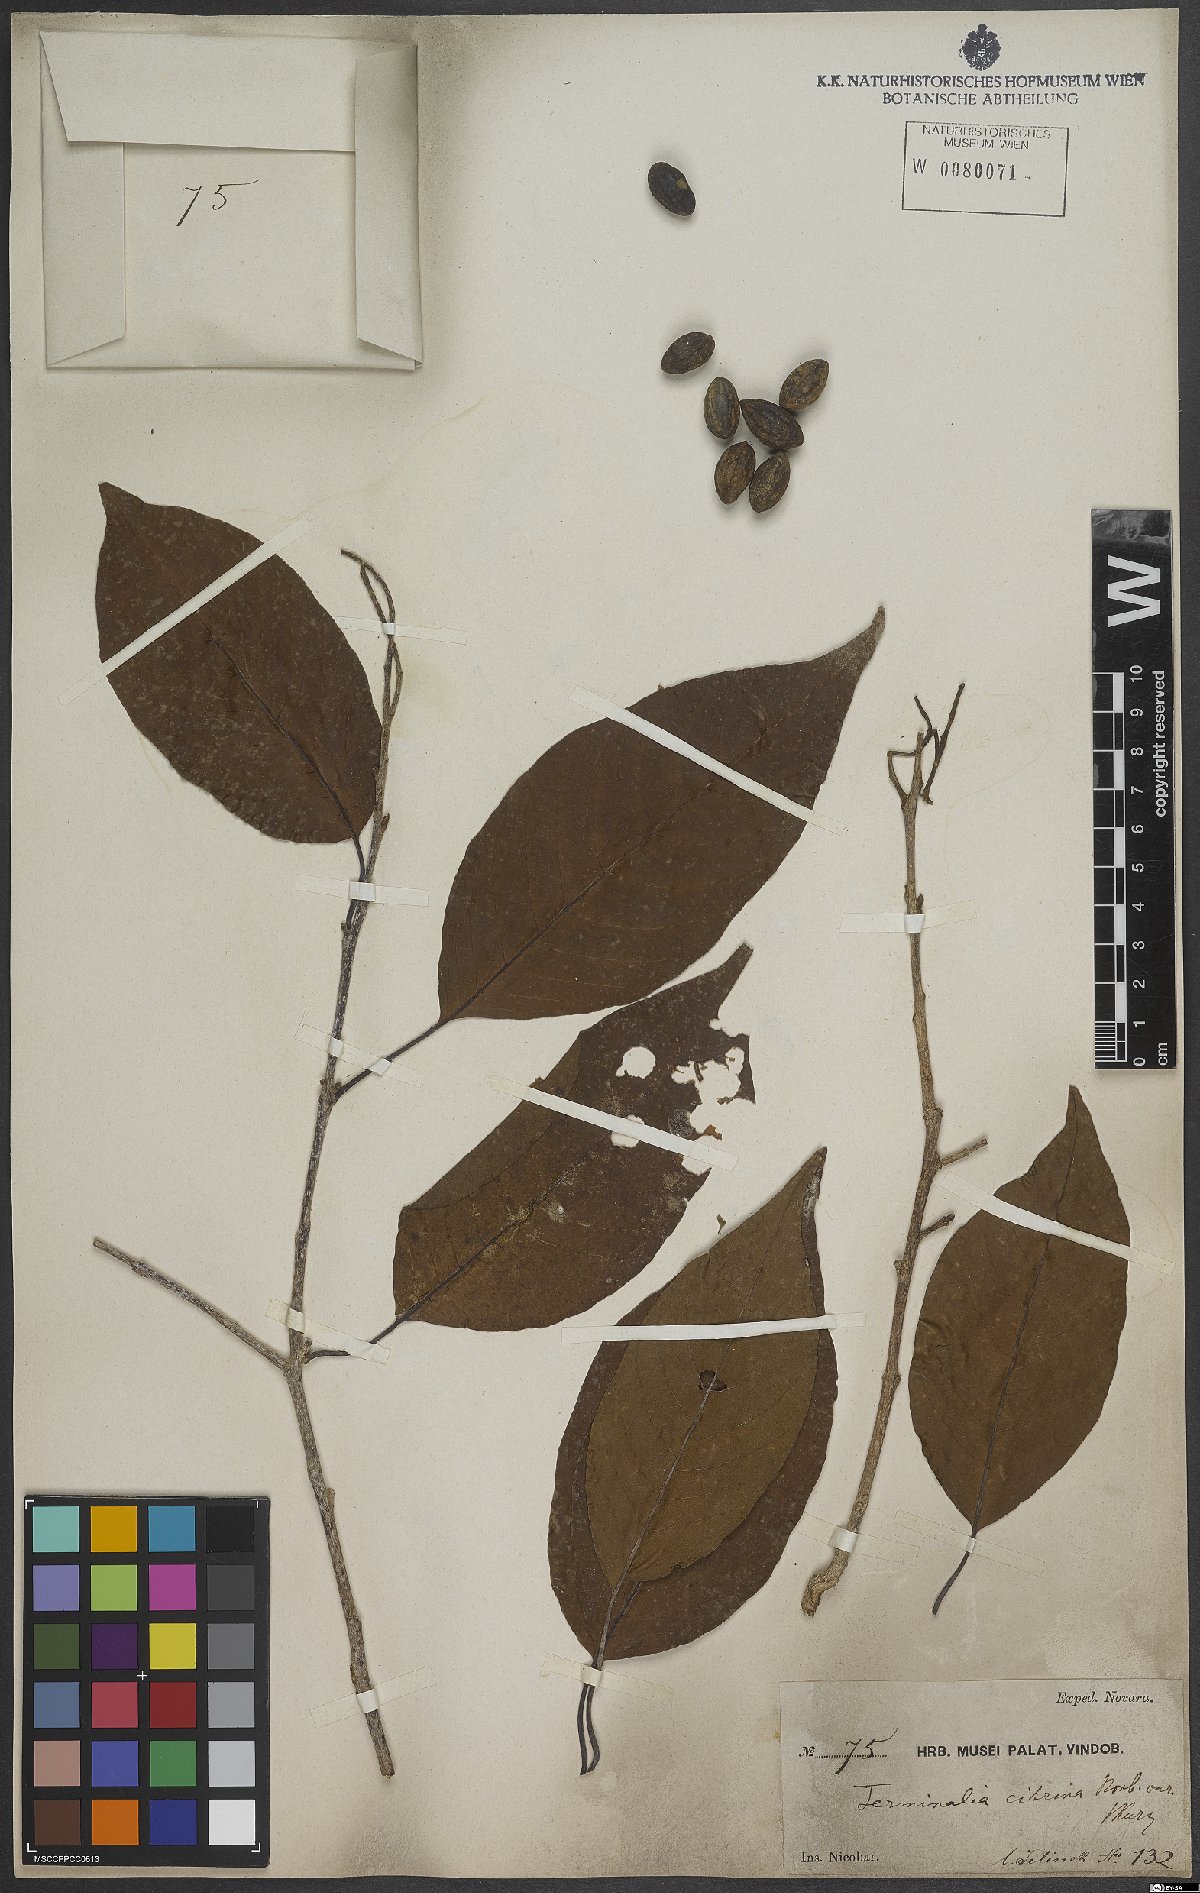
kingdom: Plantae
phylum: Tracheophyta
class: Magnoliopsida
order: Myrtales
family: Combretaceae
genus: Terminalia
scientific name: Terminalia citrina
